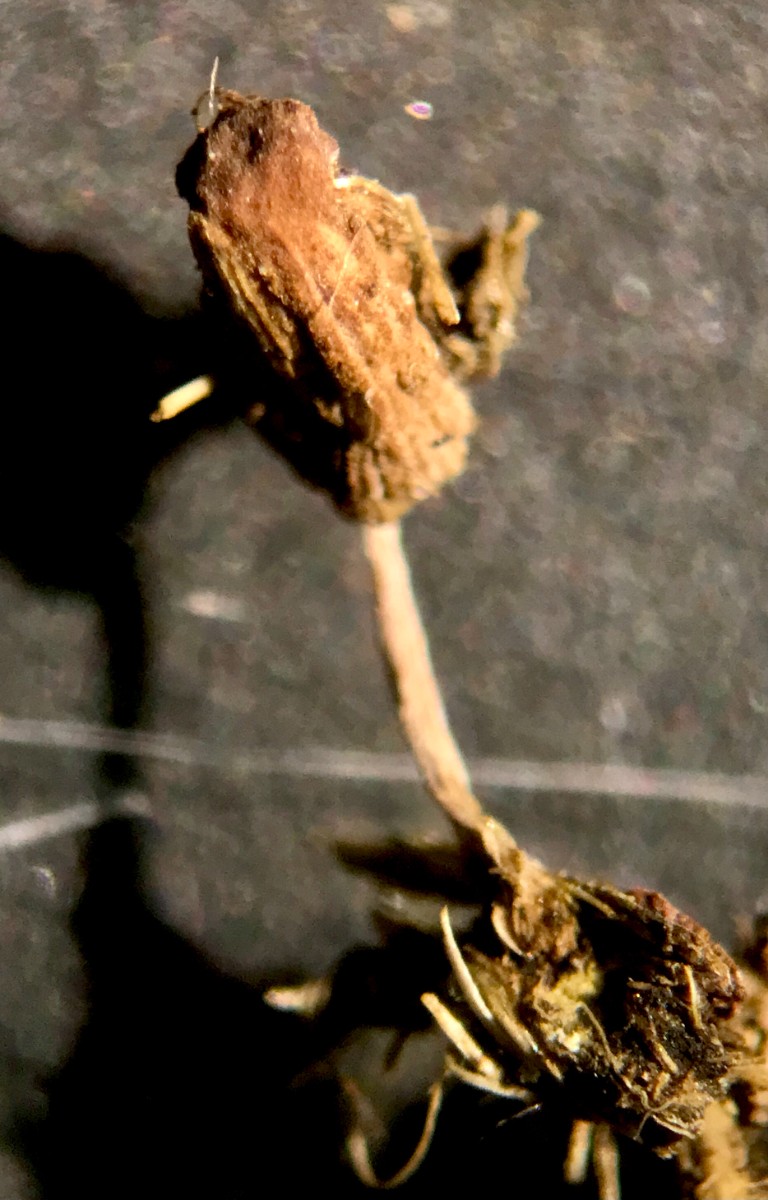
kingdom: Fungi
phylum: Basidiomycota
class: Agaricomycetes
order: Agaricales
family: Psathyrellaceae
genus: Parasola
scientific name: Parasola misera
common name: lillebitte hjulhat
